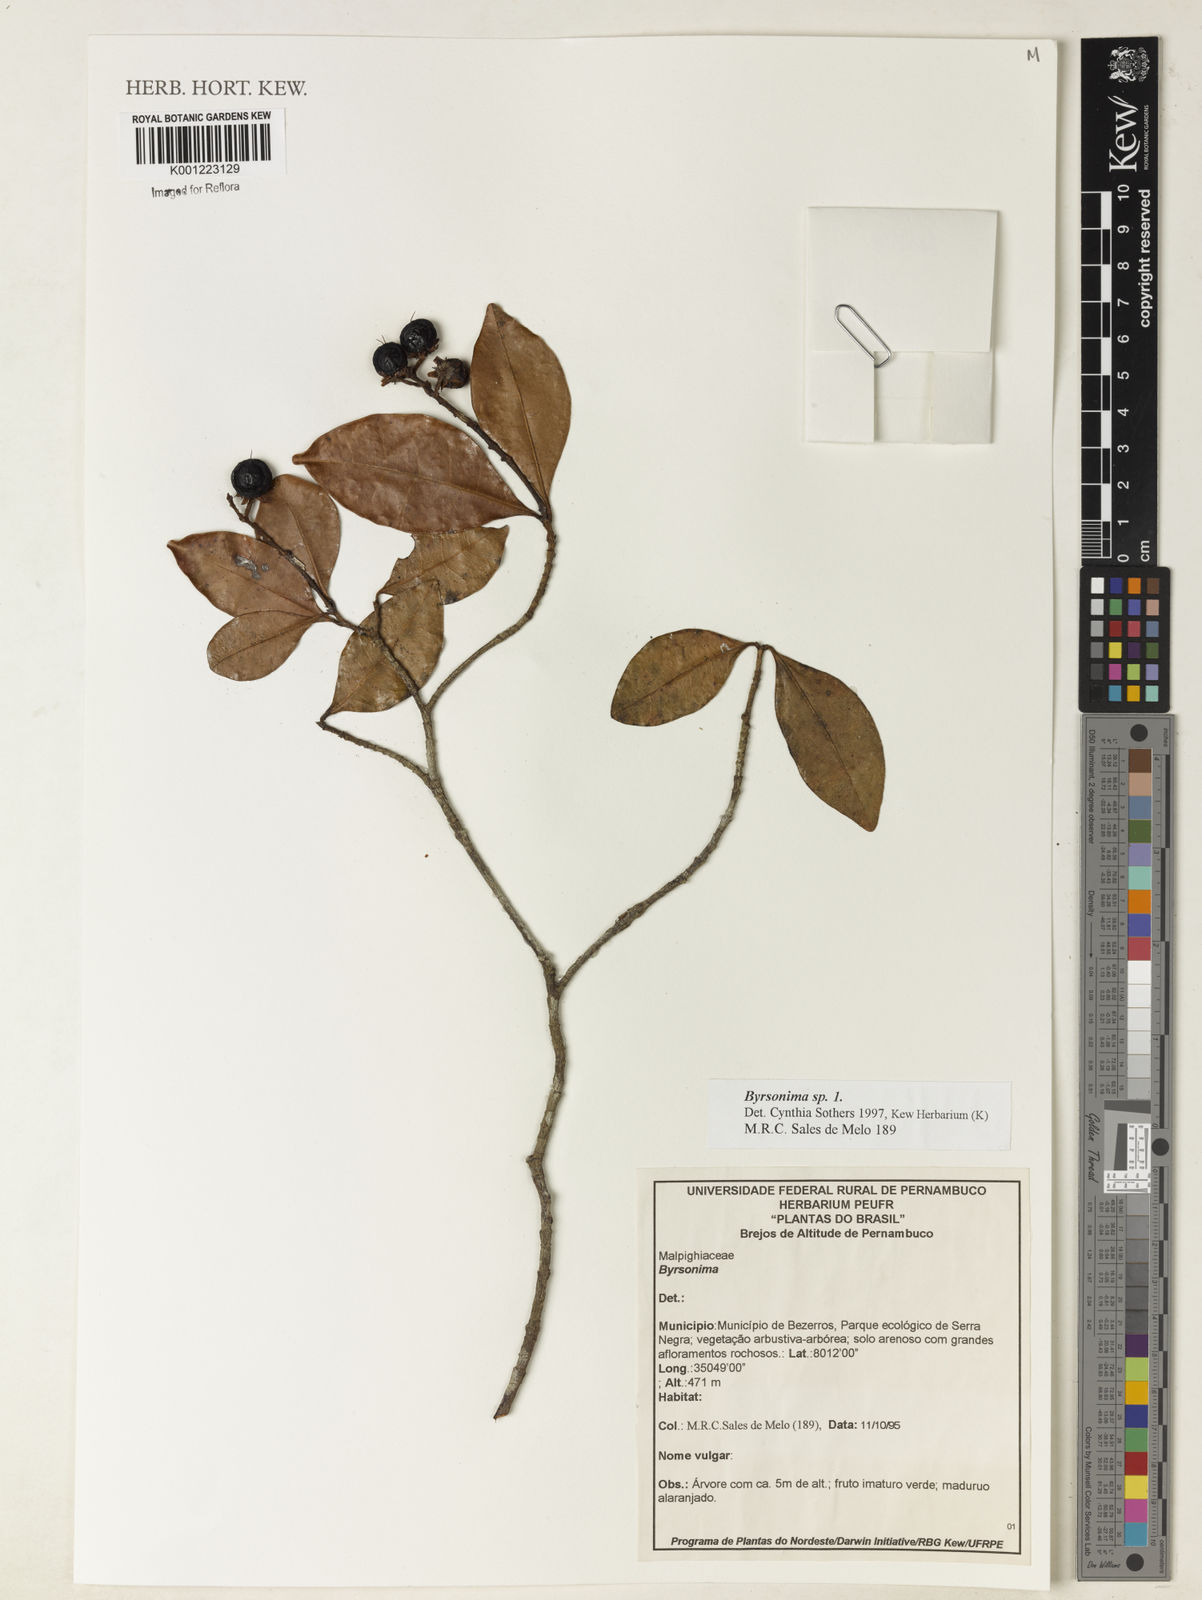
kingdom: Plantae
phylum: Tracheophyta
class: Magnoliopsida
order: Malpighiales
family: Malpighiaceae
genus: Byrsonima
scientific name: Byrsonima
